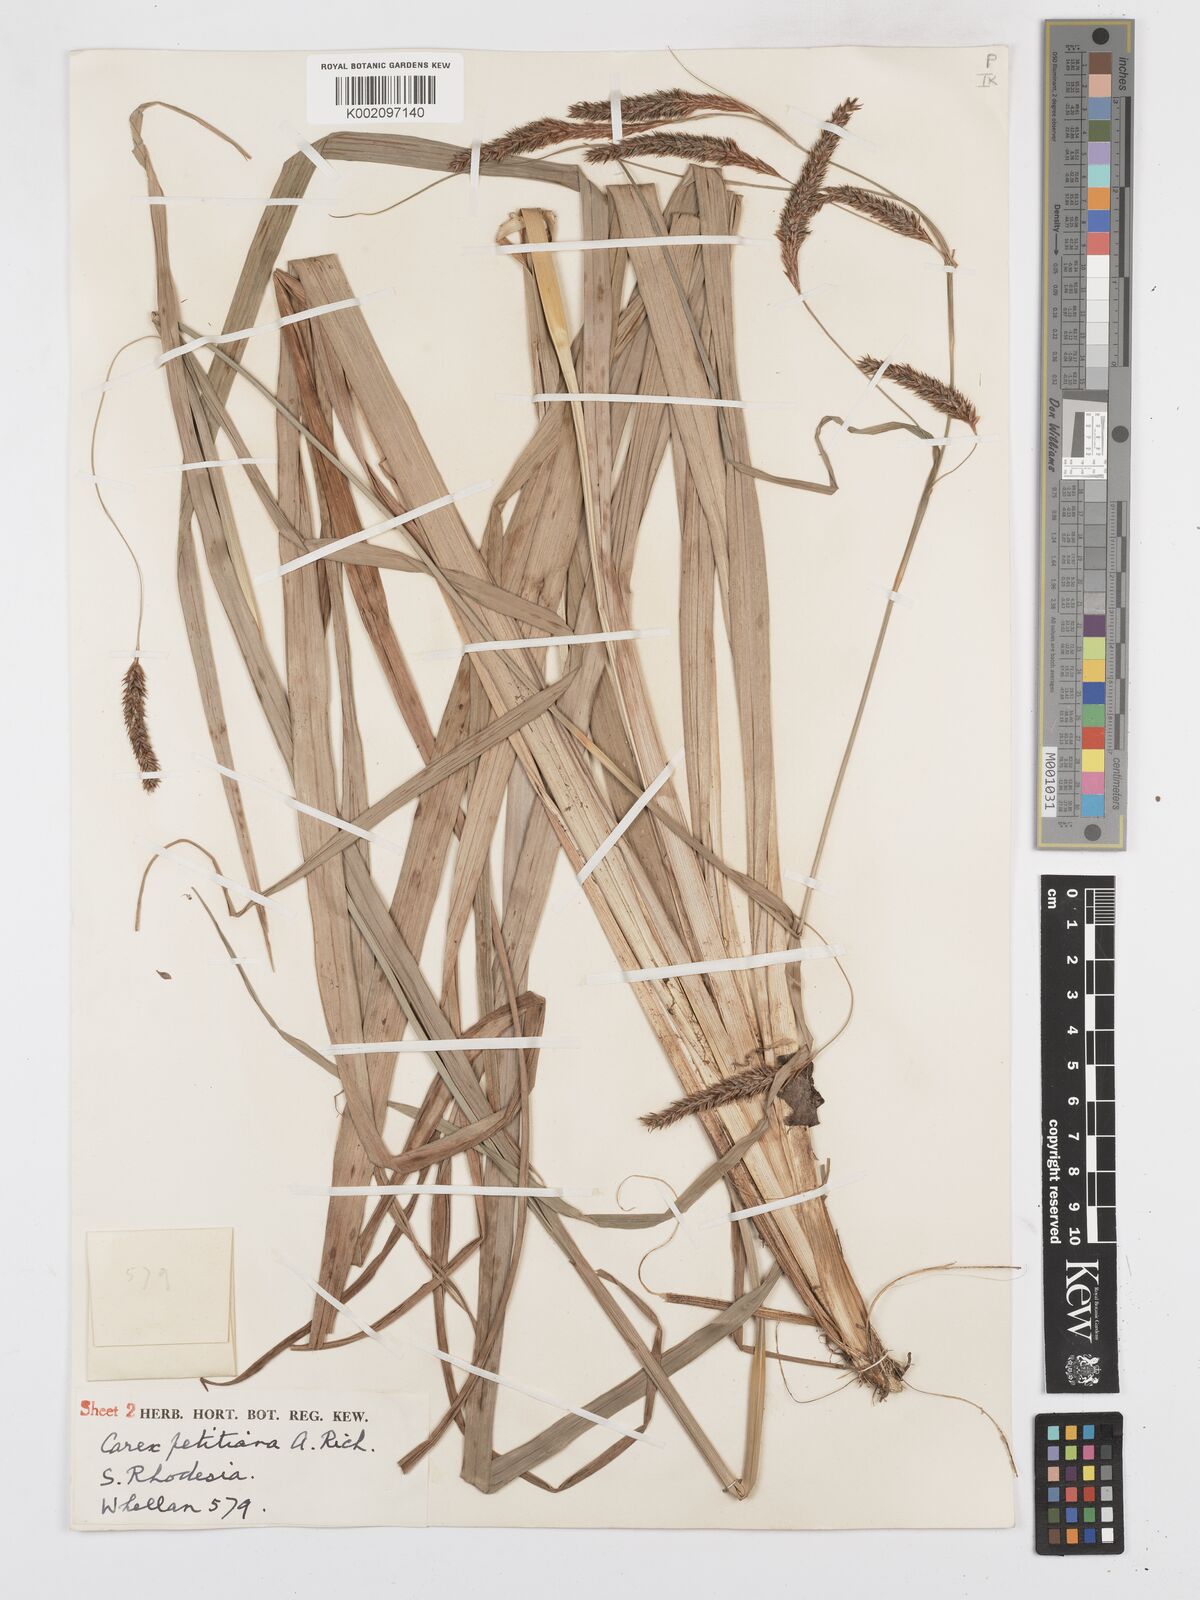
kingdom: Plantae
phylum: Tracheophyta
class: Liliopsida
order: Poales
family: Cyperaceae
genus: Carex
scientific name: Carex petitiana
